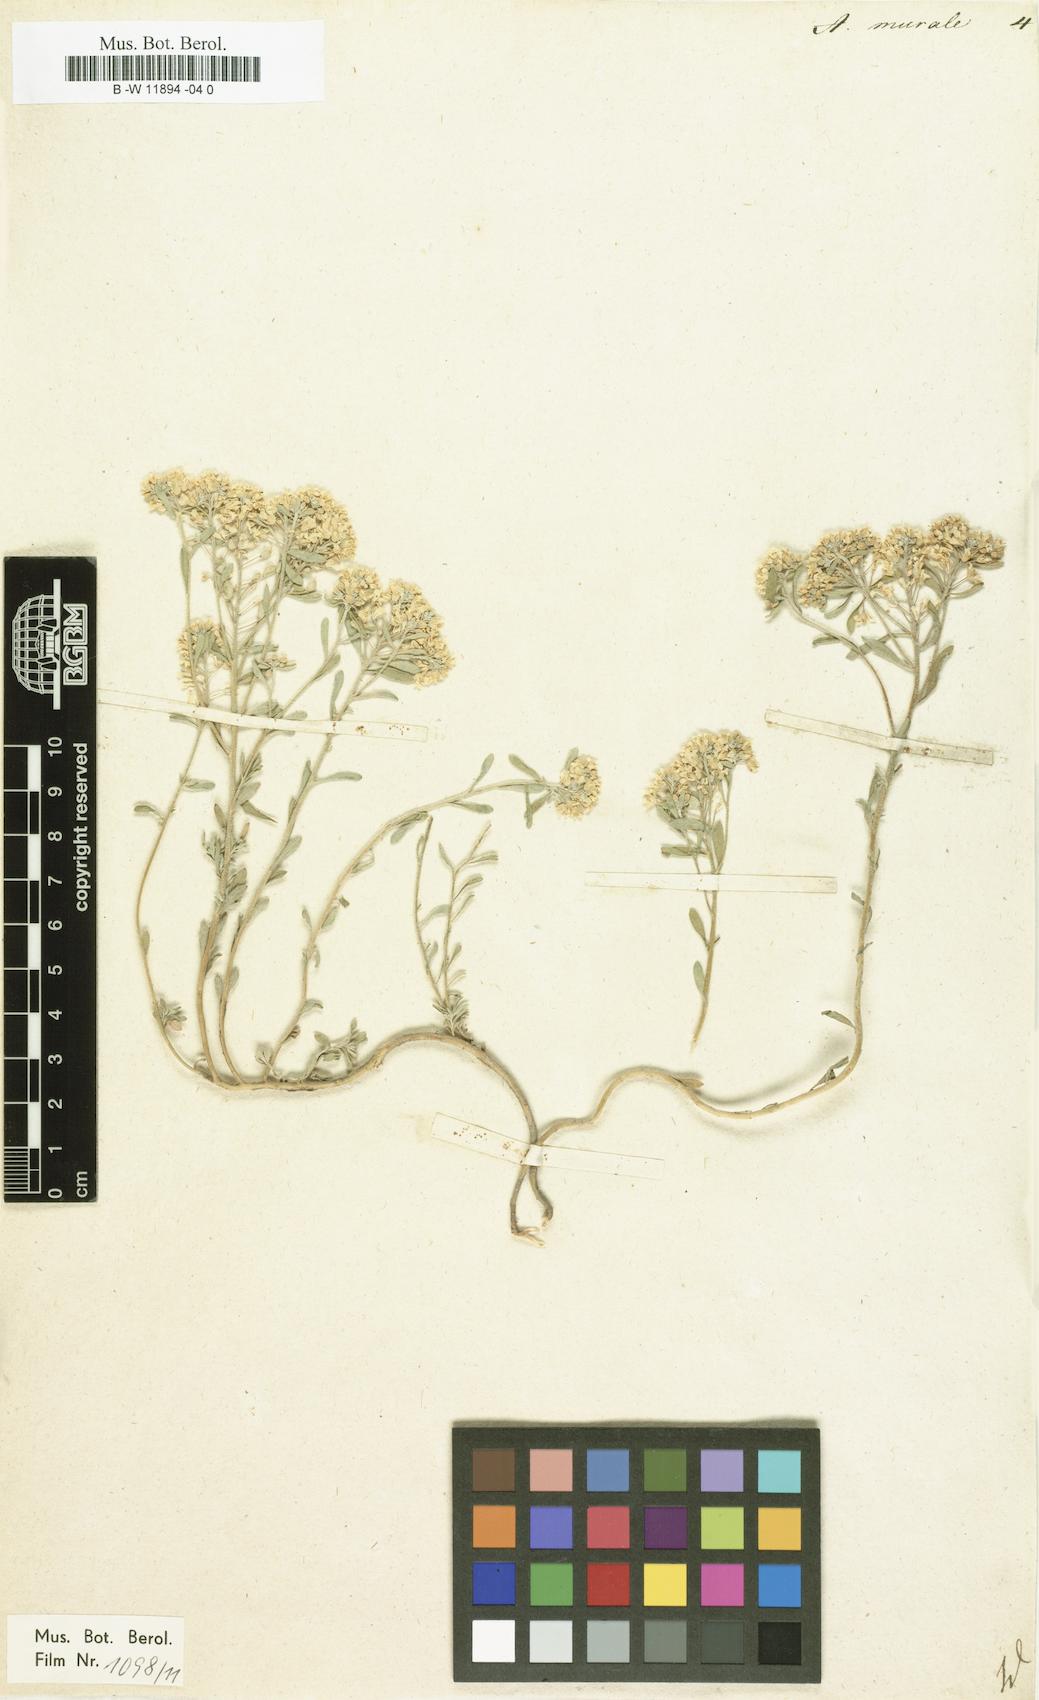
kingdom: Plantae
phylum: Tracheophyta
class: Magnoliopsida
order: Brassicales
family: Brassicaceae
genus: Odontarrhena
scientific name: Odontarrhena muralis
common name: Rock alyssum
